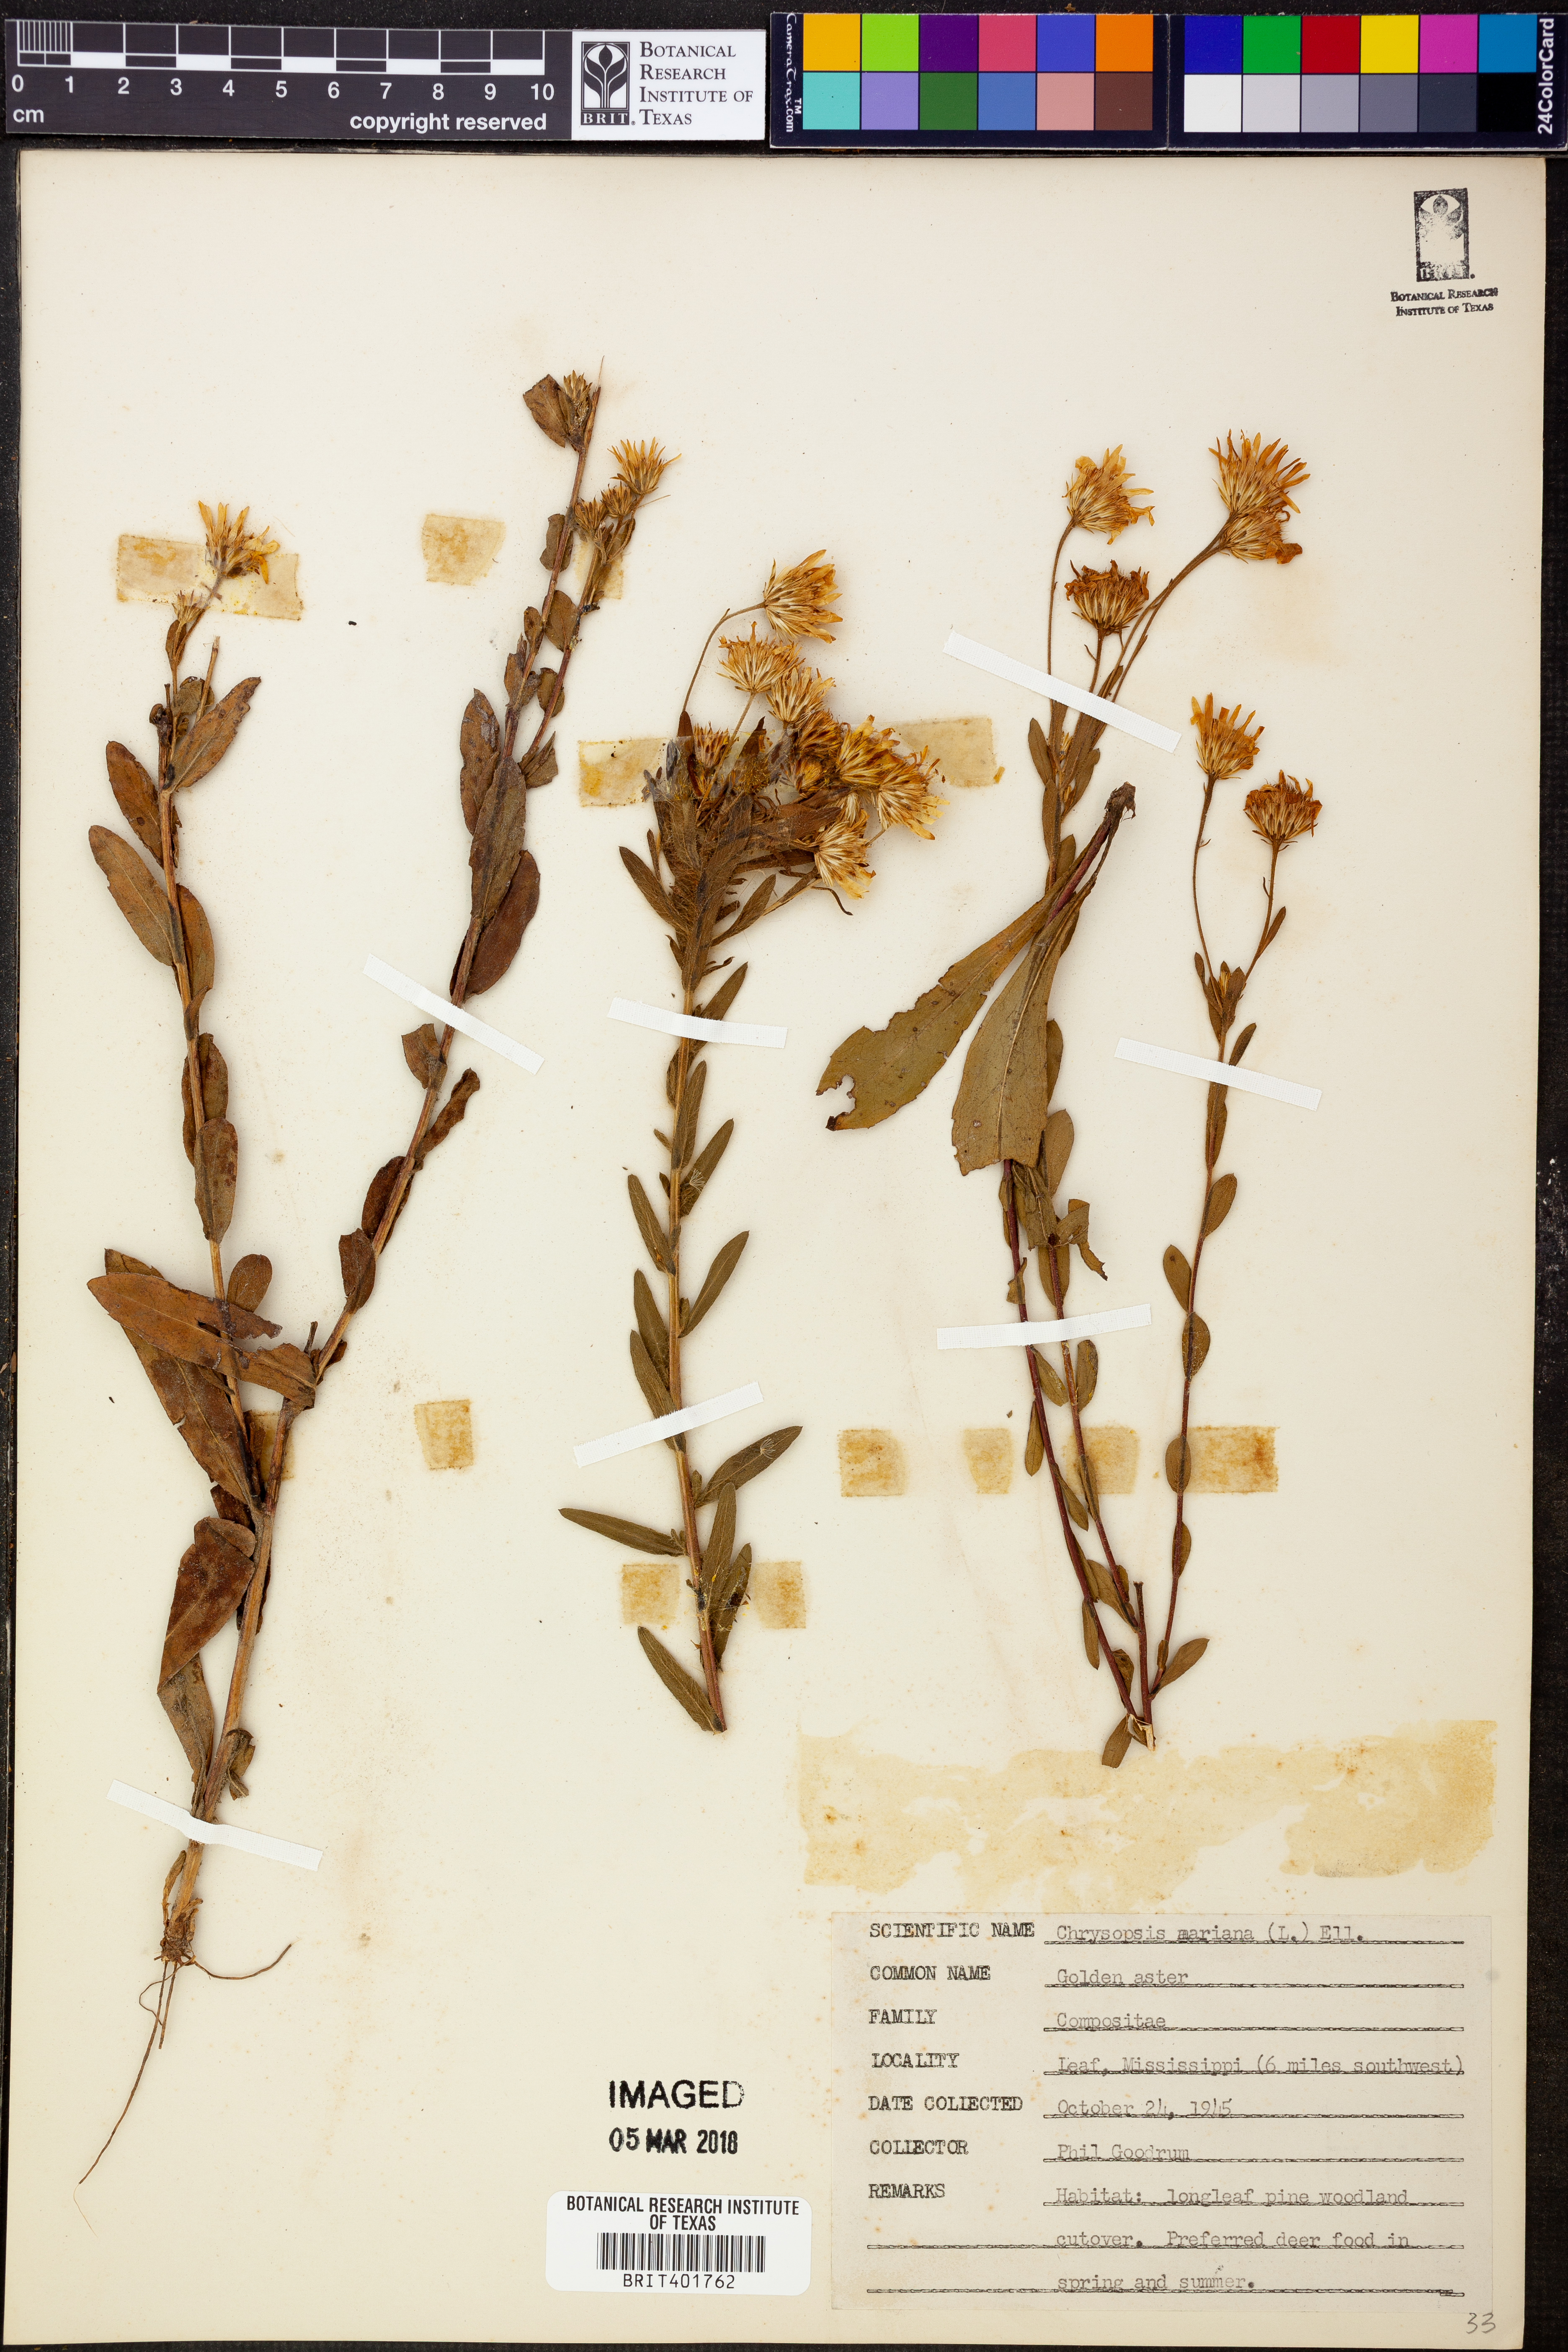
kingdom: Plantae
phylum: Tracheophyta
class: Magnoliopsida
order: Asterales
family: Asteraceae
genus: Chrysopsis
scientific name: Chrysopsis mariana
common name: Maryland golden-aster
